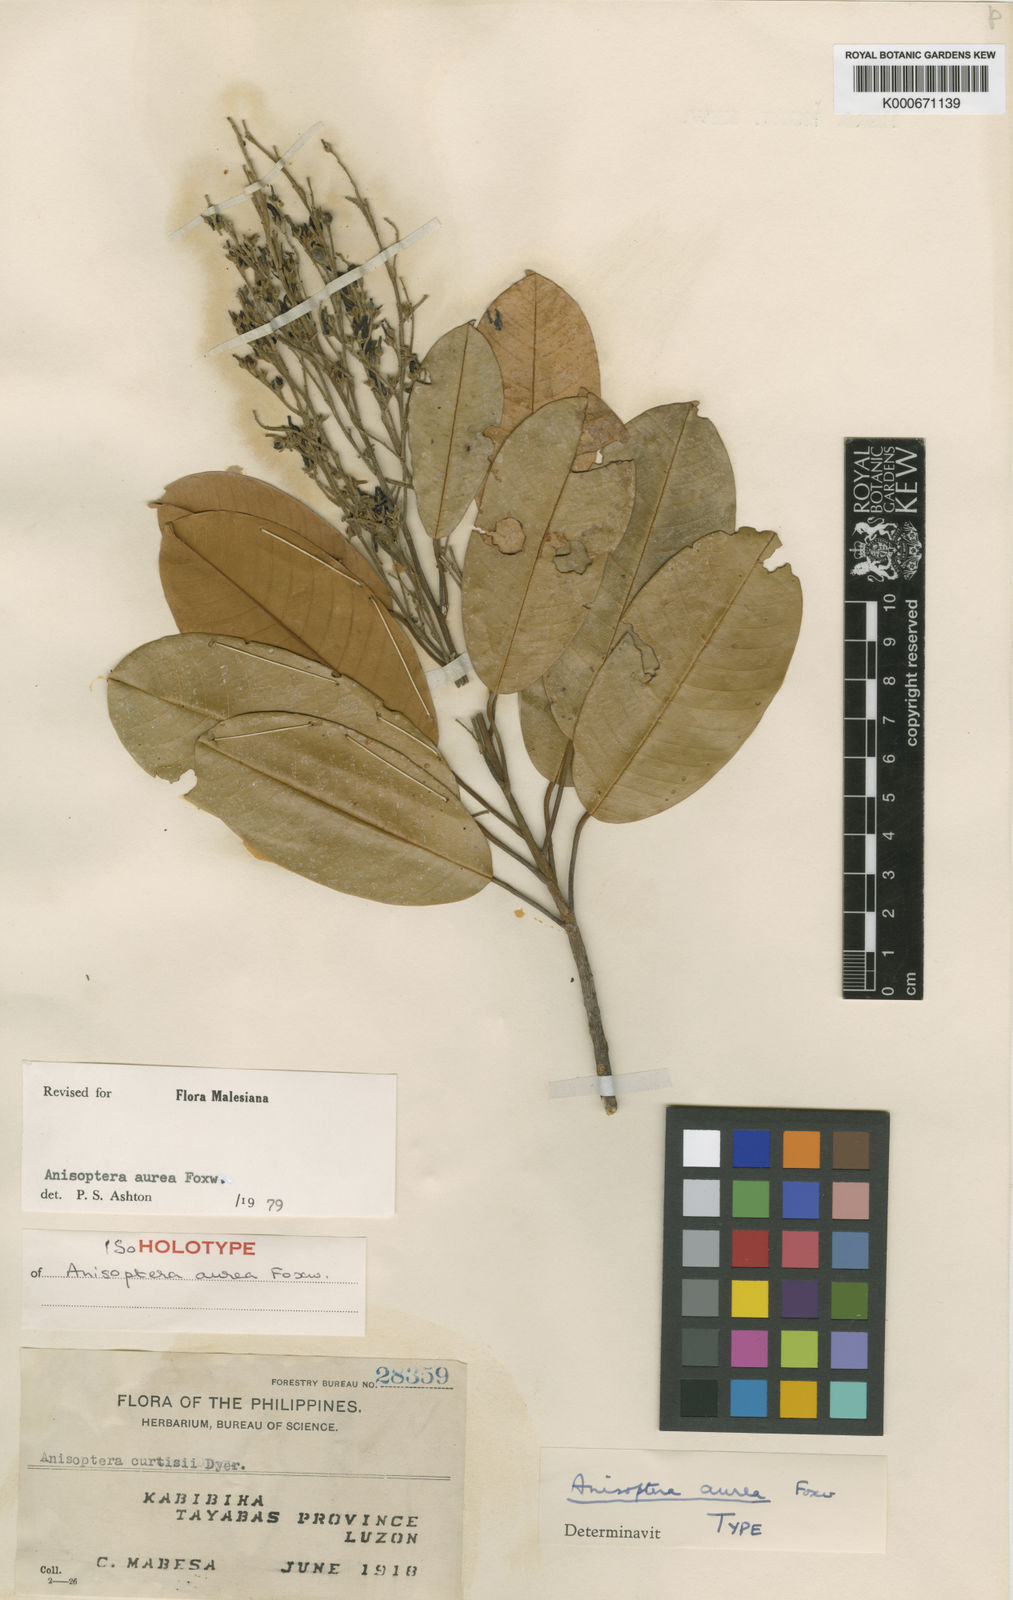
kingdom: Plantae
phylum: Tracheophyta
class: Magnoliopsida
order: Malvales
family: Dipterocarpaceae
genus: Anisoptera
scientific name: Anisoptera aurea
